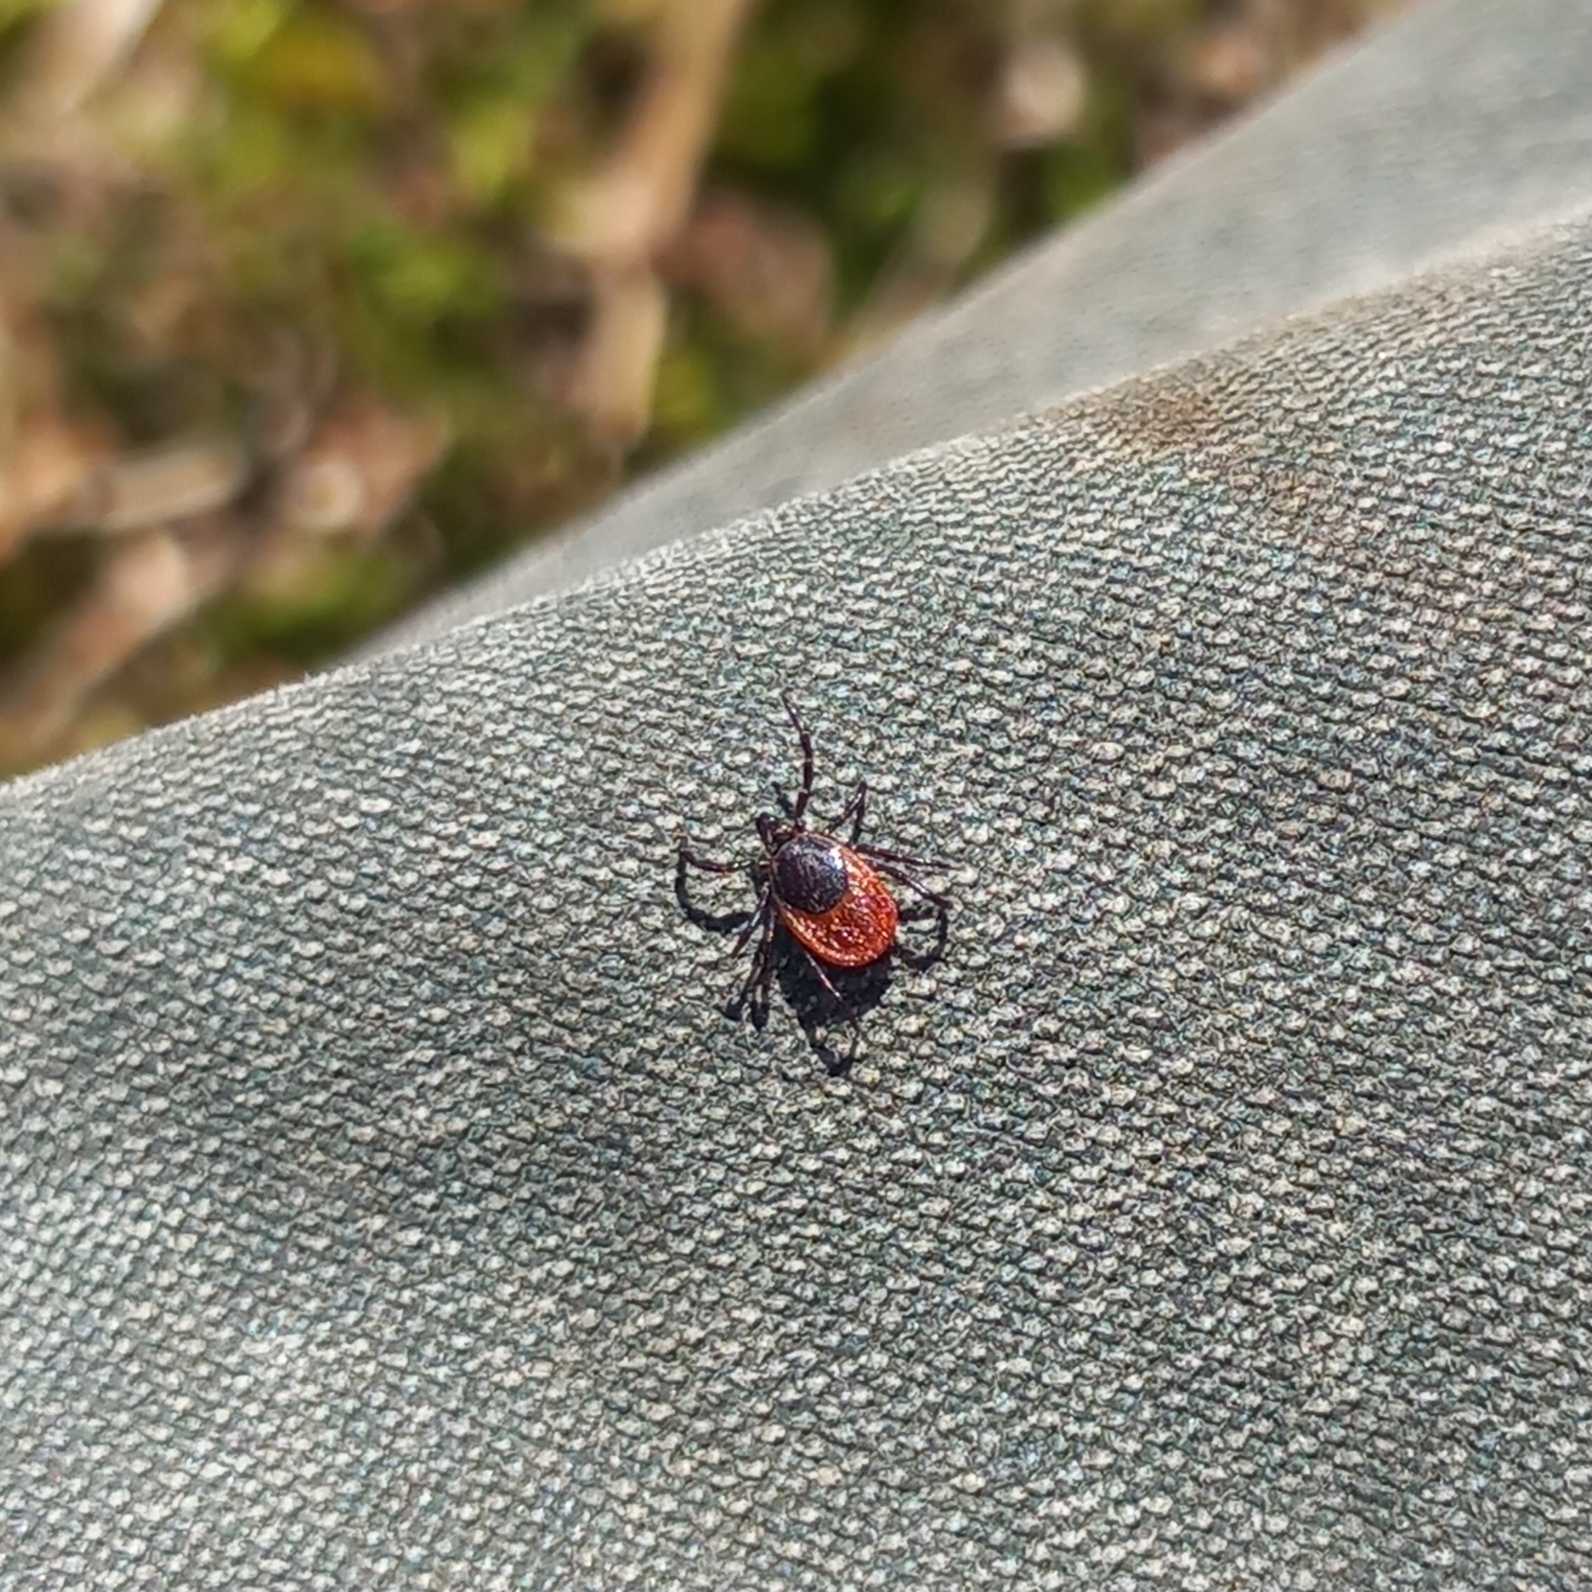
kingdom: Animalia
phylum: Arthropoda
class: Arachnida
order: Ixodida
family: Ixodidae
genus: Ixodes
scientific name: Ixodes ricinus
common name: Skovflåt
